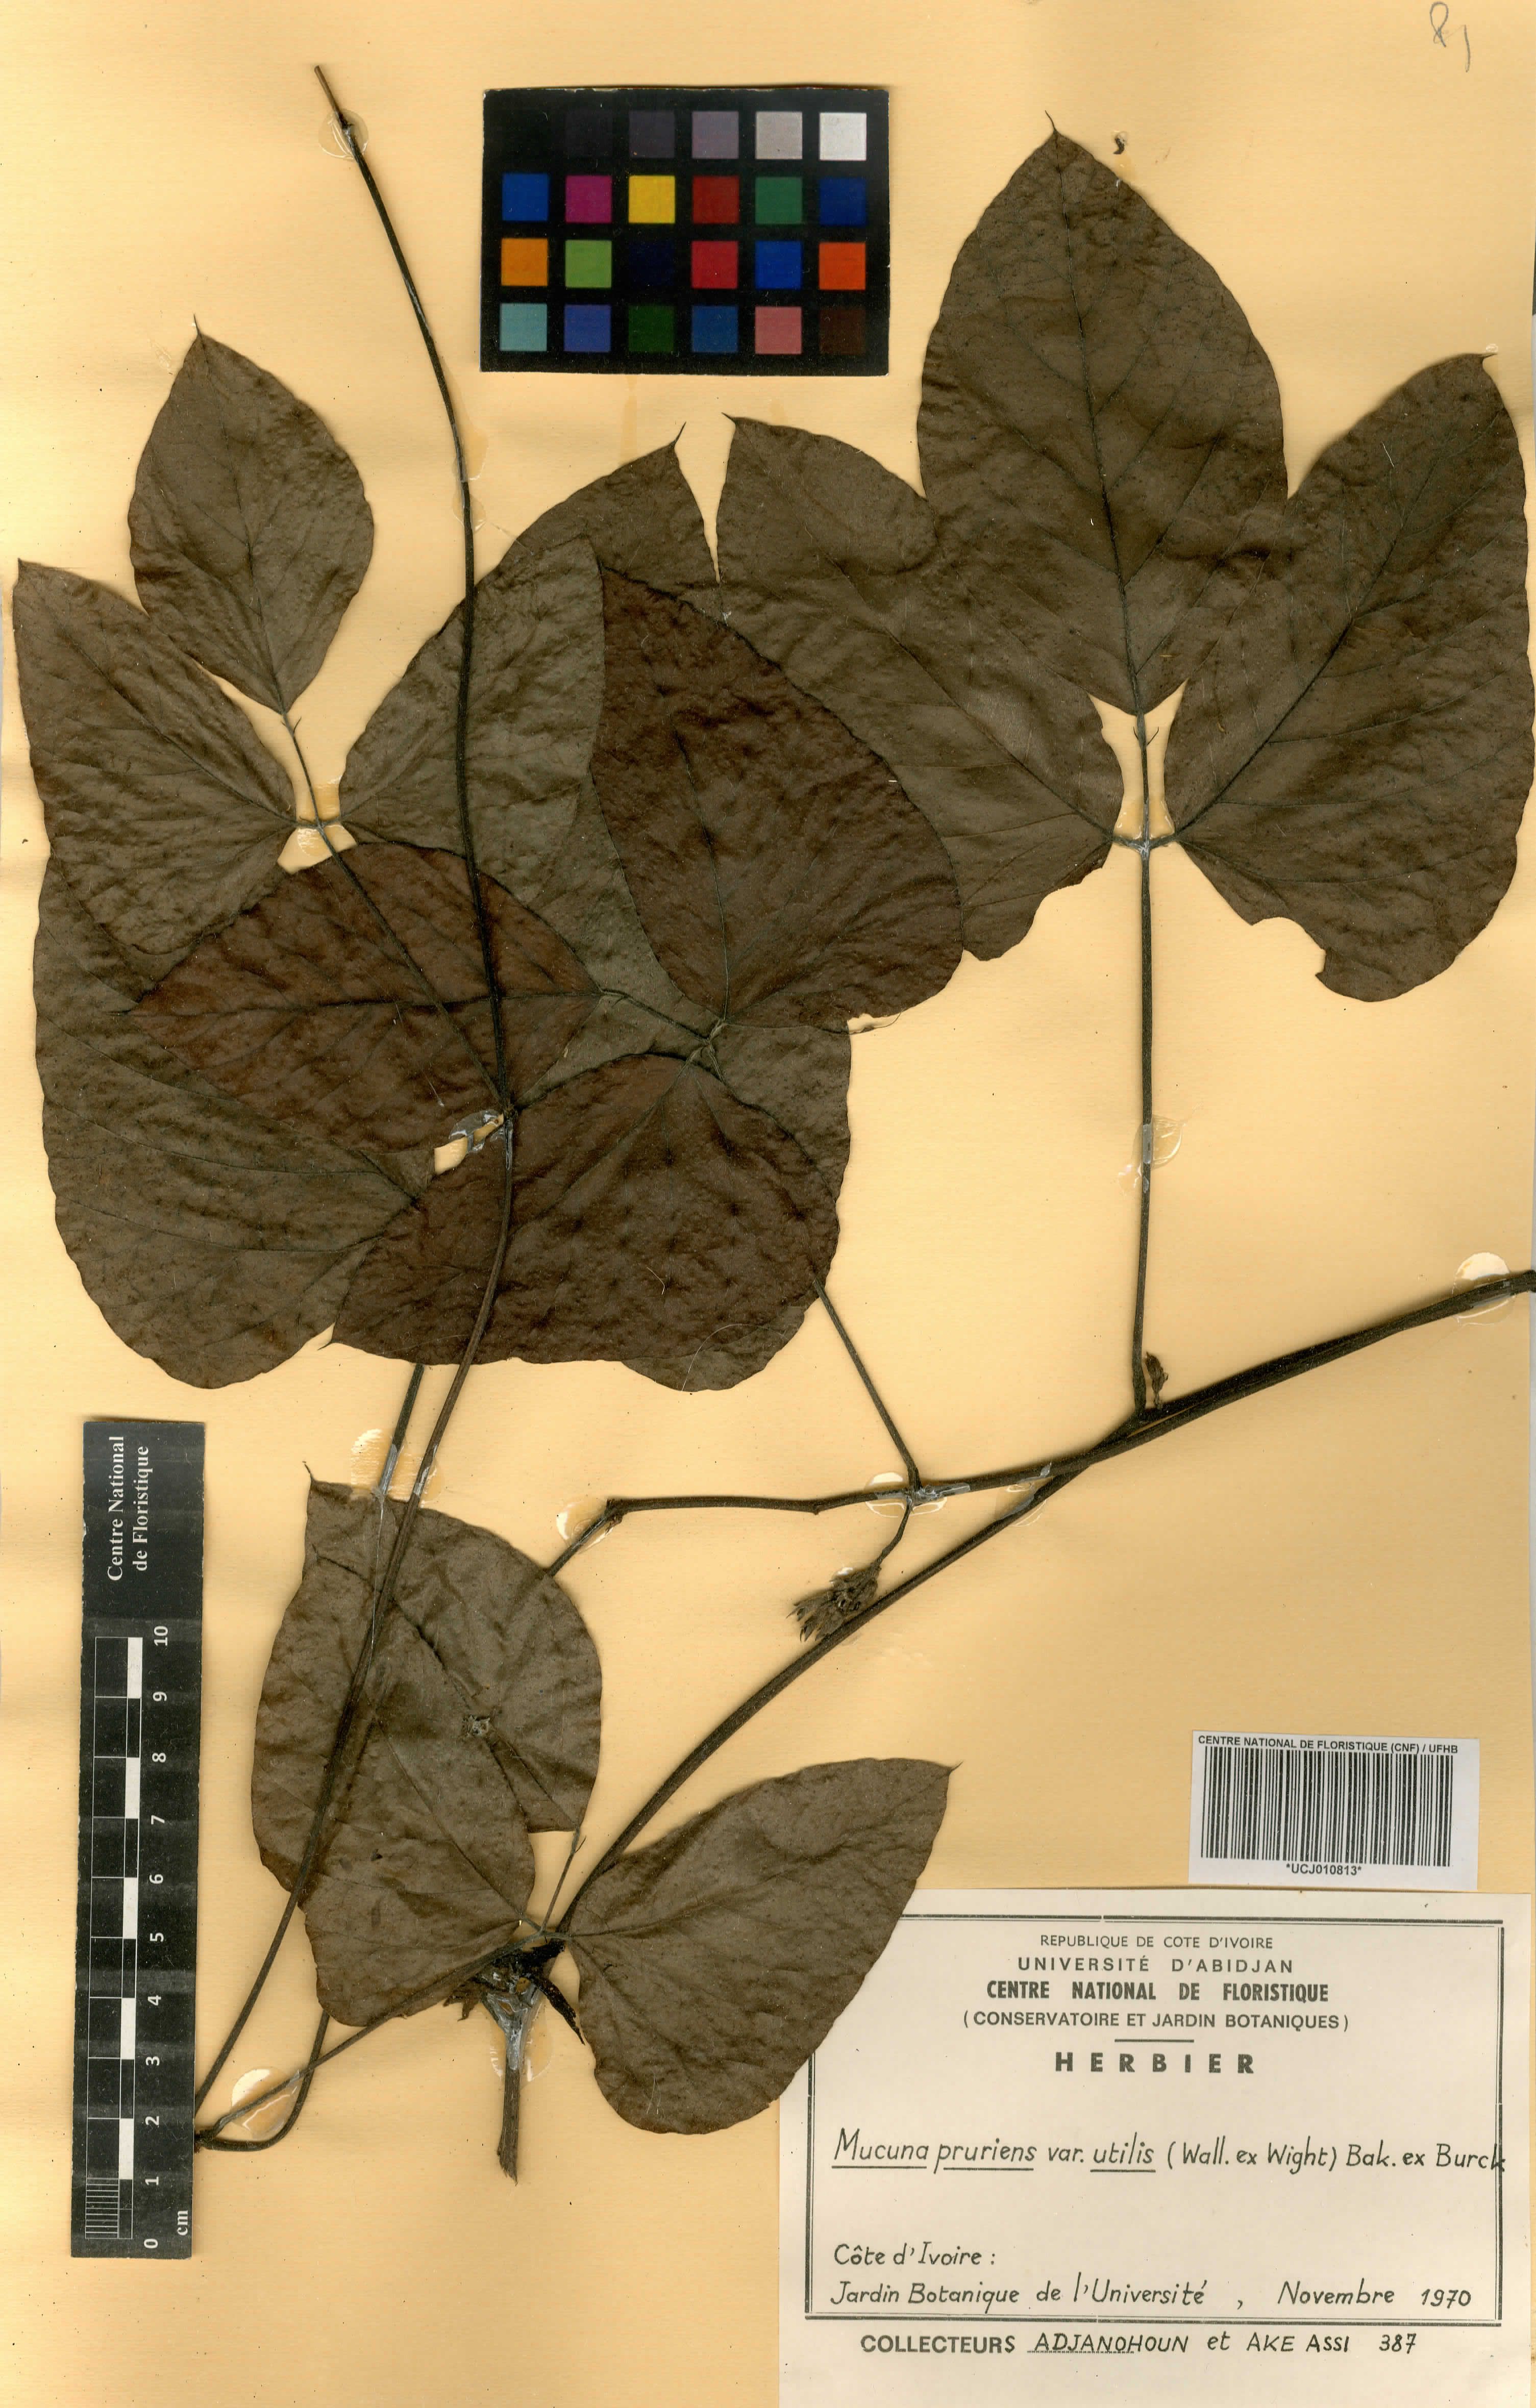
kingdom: Plantae
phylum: Tracheophyta
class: Magnoliopsida
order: Fabales
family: Fabaceae
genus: Mucuna
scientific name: Mucuna pruriens
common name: Cow-itch
